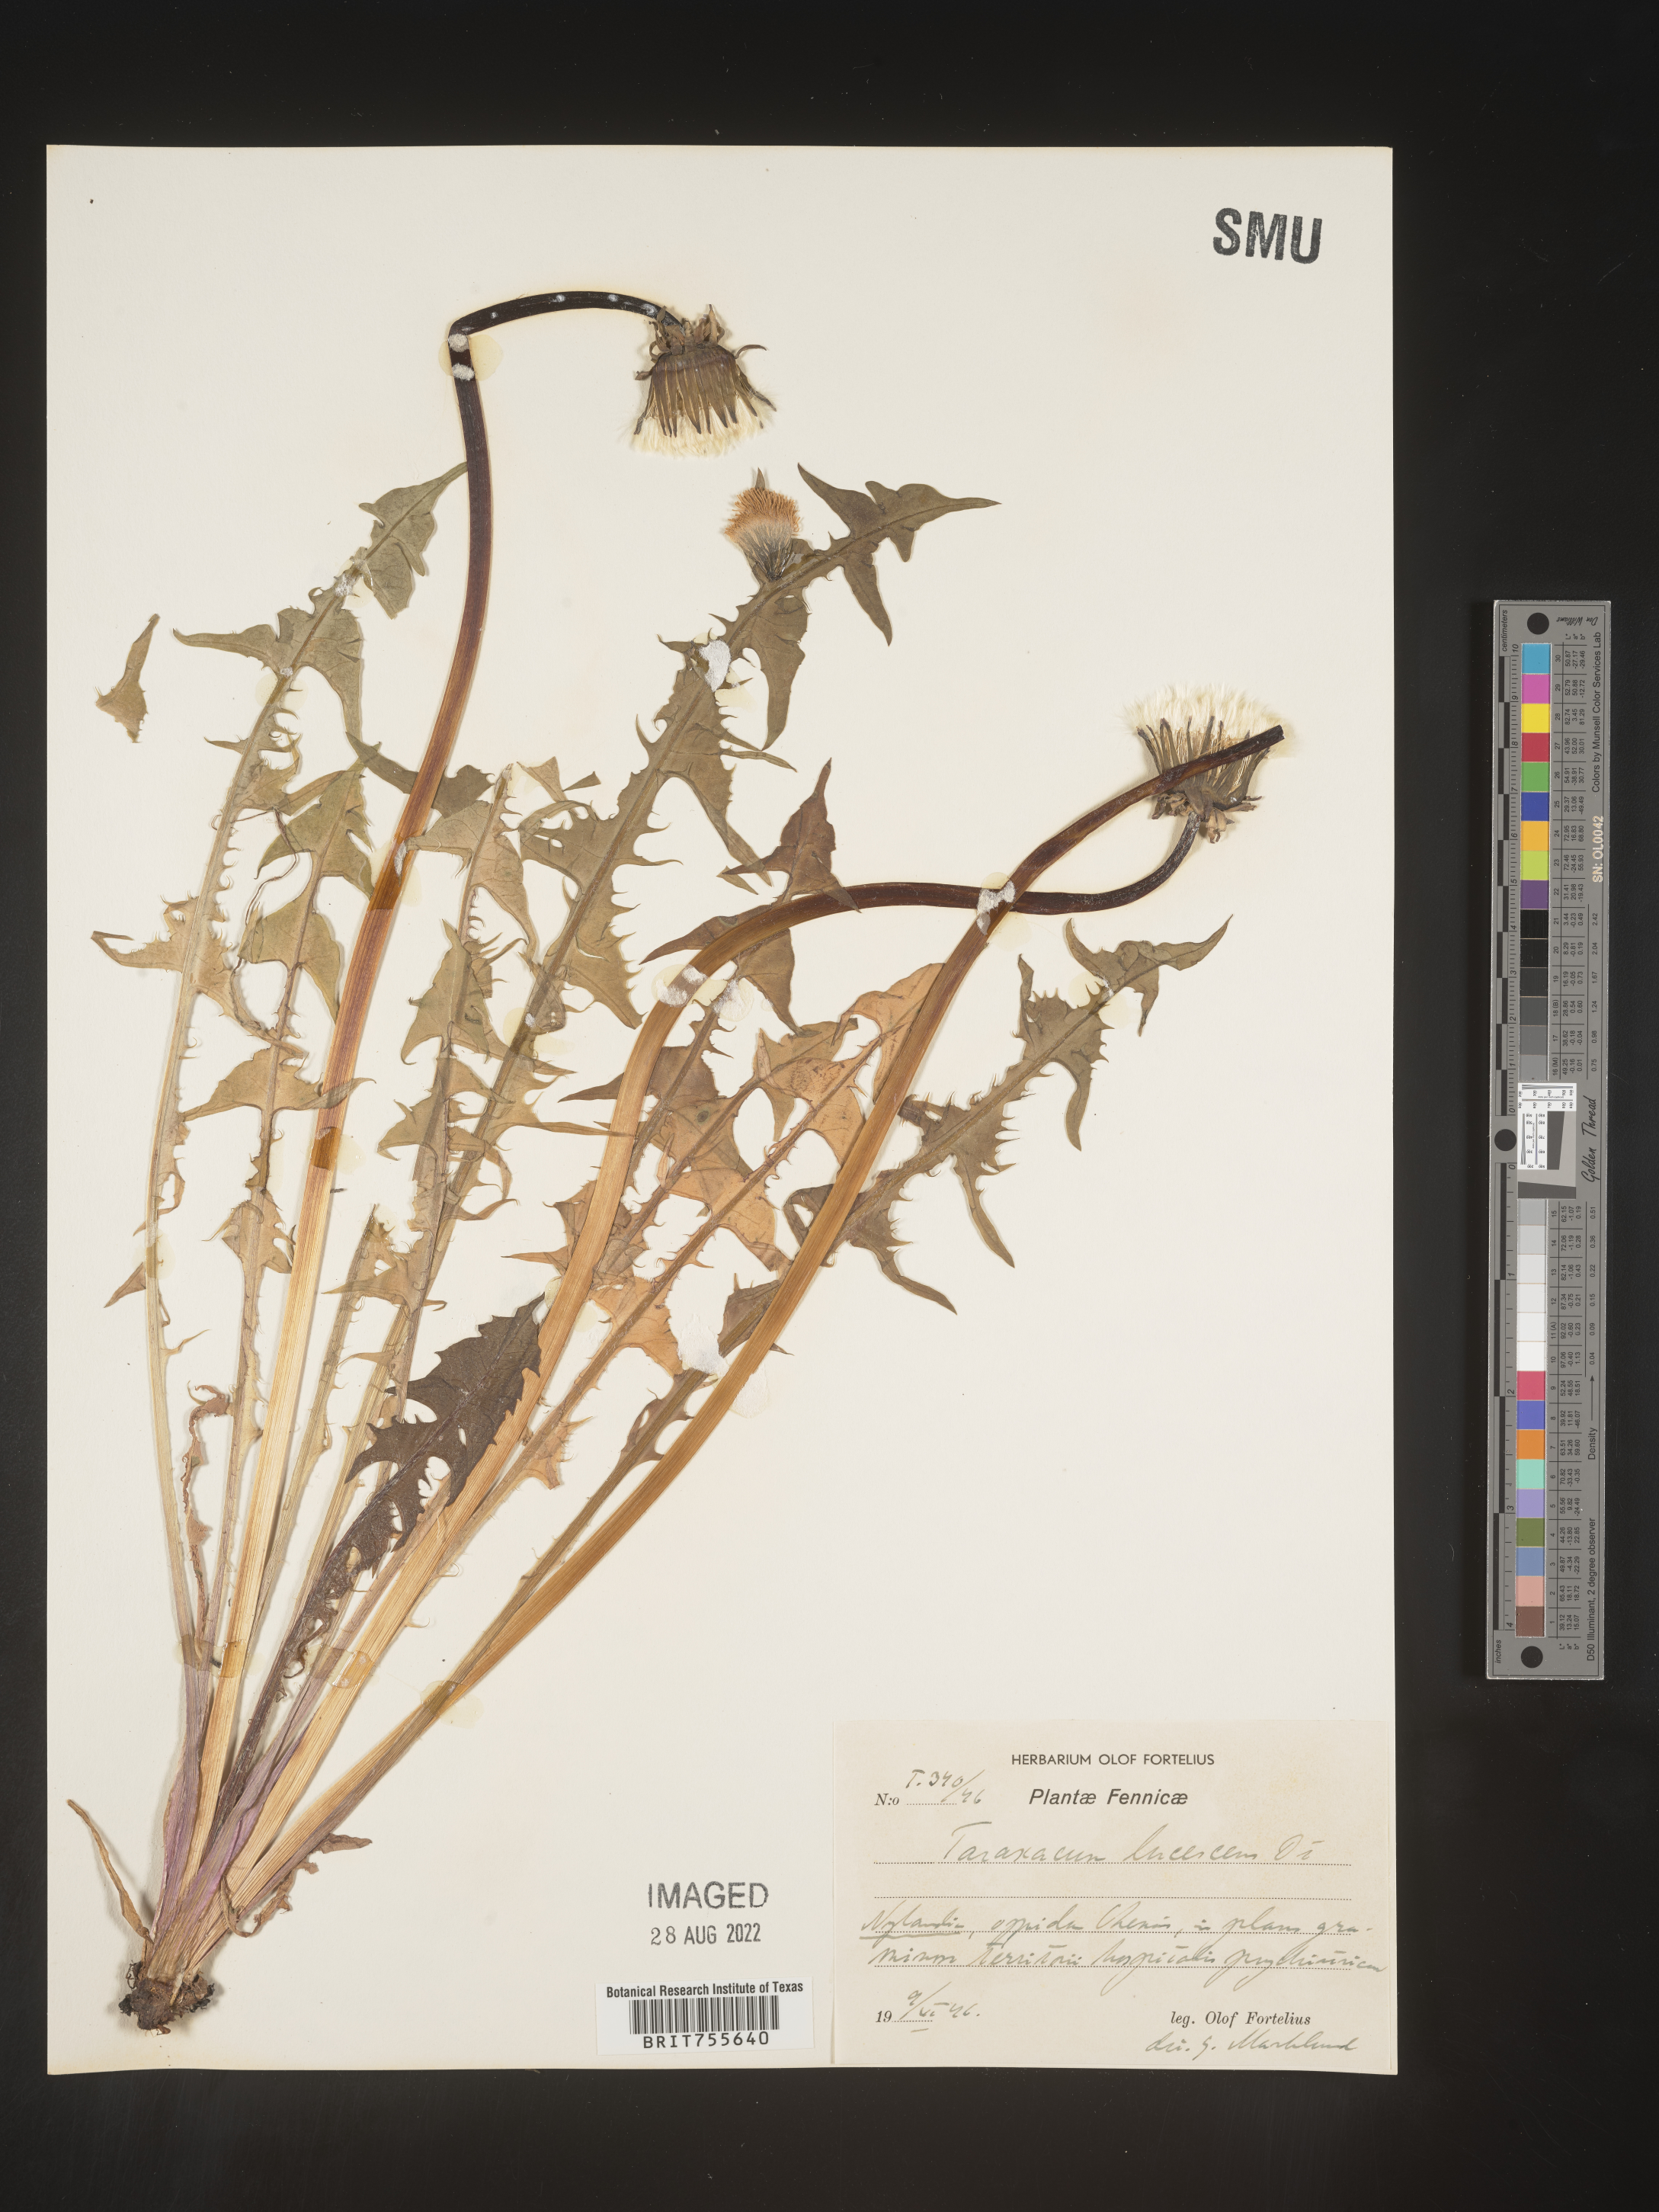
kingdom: Plantae
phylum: Tracheophyta
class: Magnoliopsida
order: Asterales
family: Asteraceae
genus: Taraxacum
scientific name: Taraxacum
